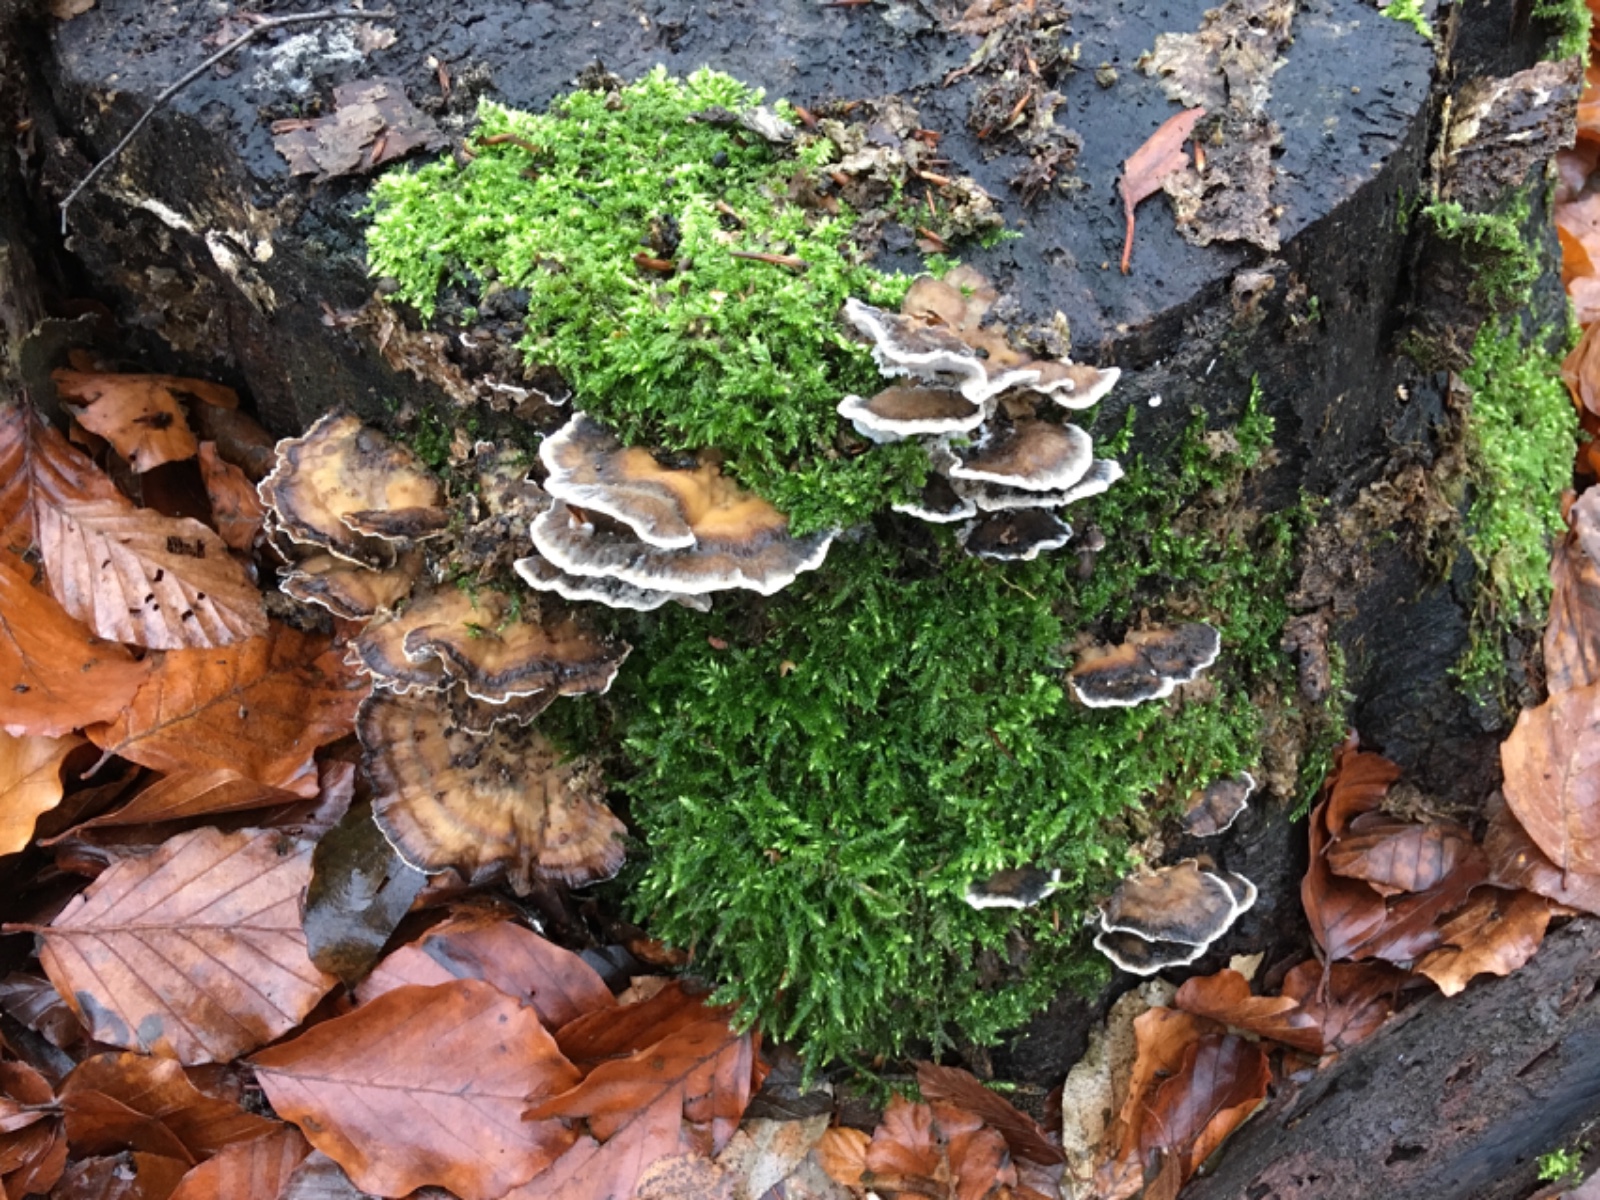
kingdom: Fungi
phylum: Basidiomycota
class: Agaricomycetes
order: Polyporales
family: Phanerochaetaceae
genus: Bjerkandera
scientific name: Bjerkandera adusta
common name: sveden sodporesvamp
